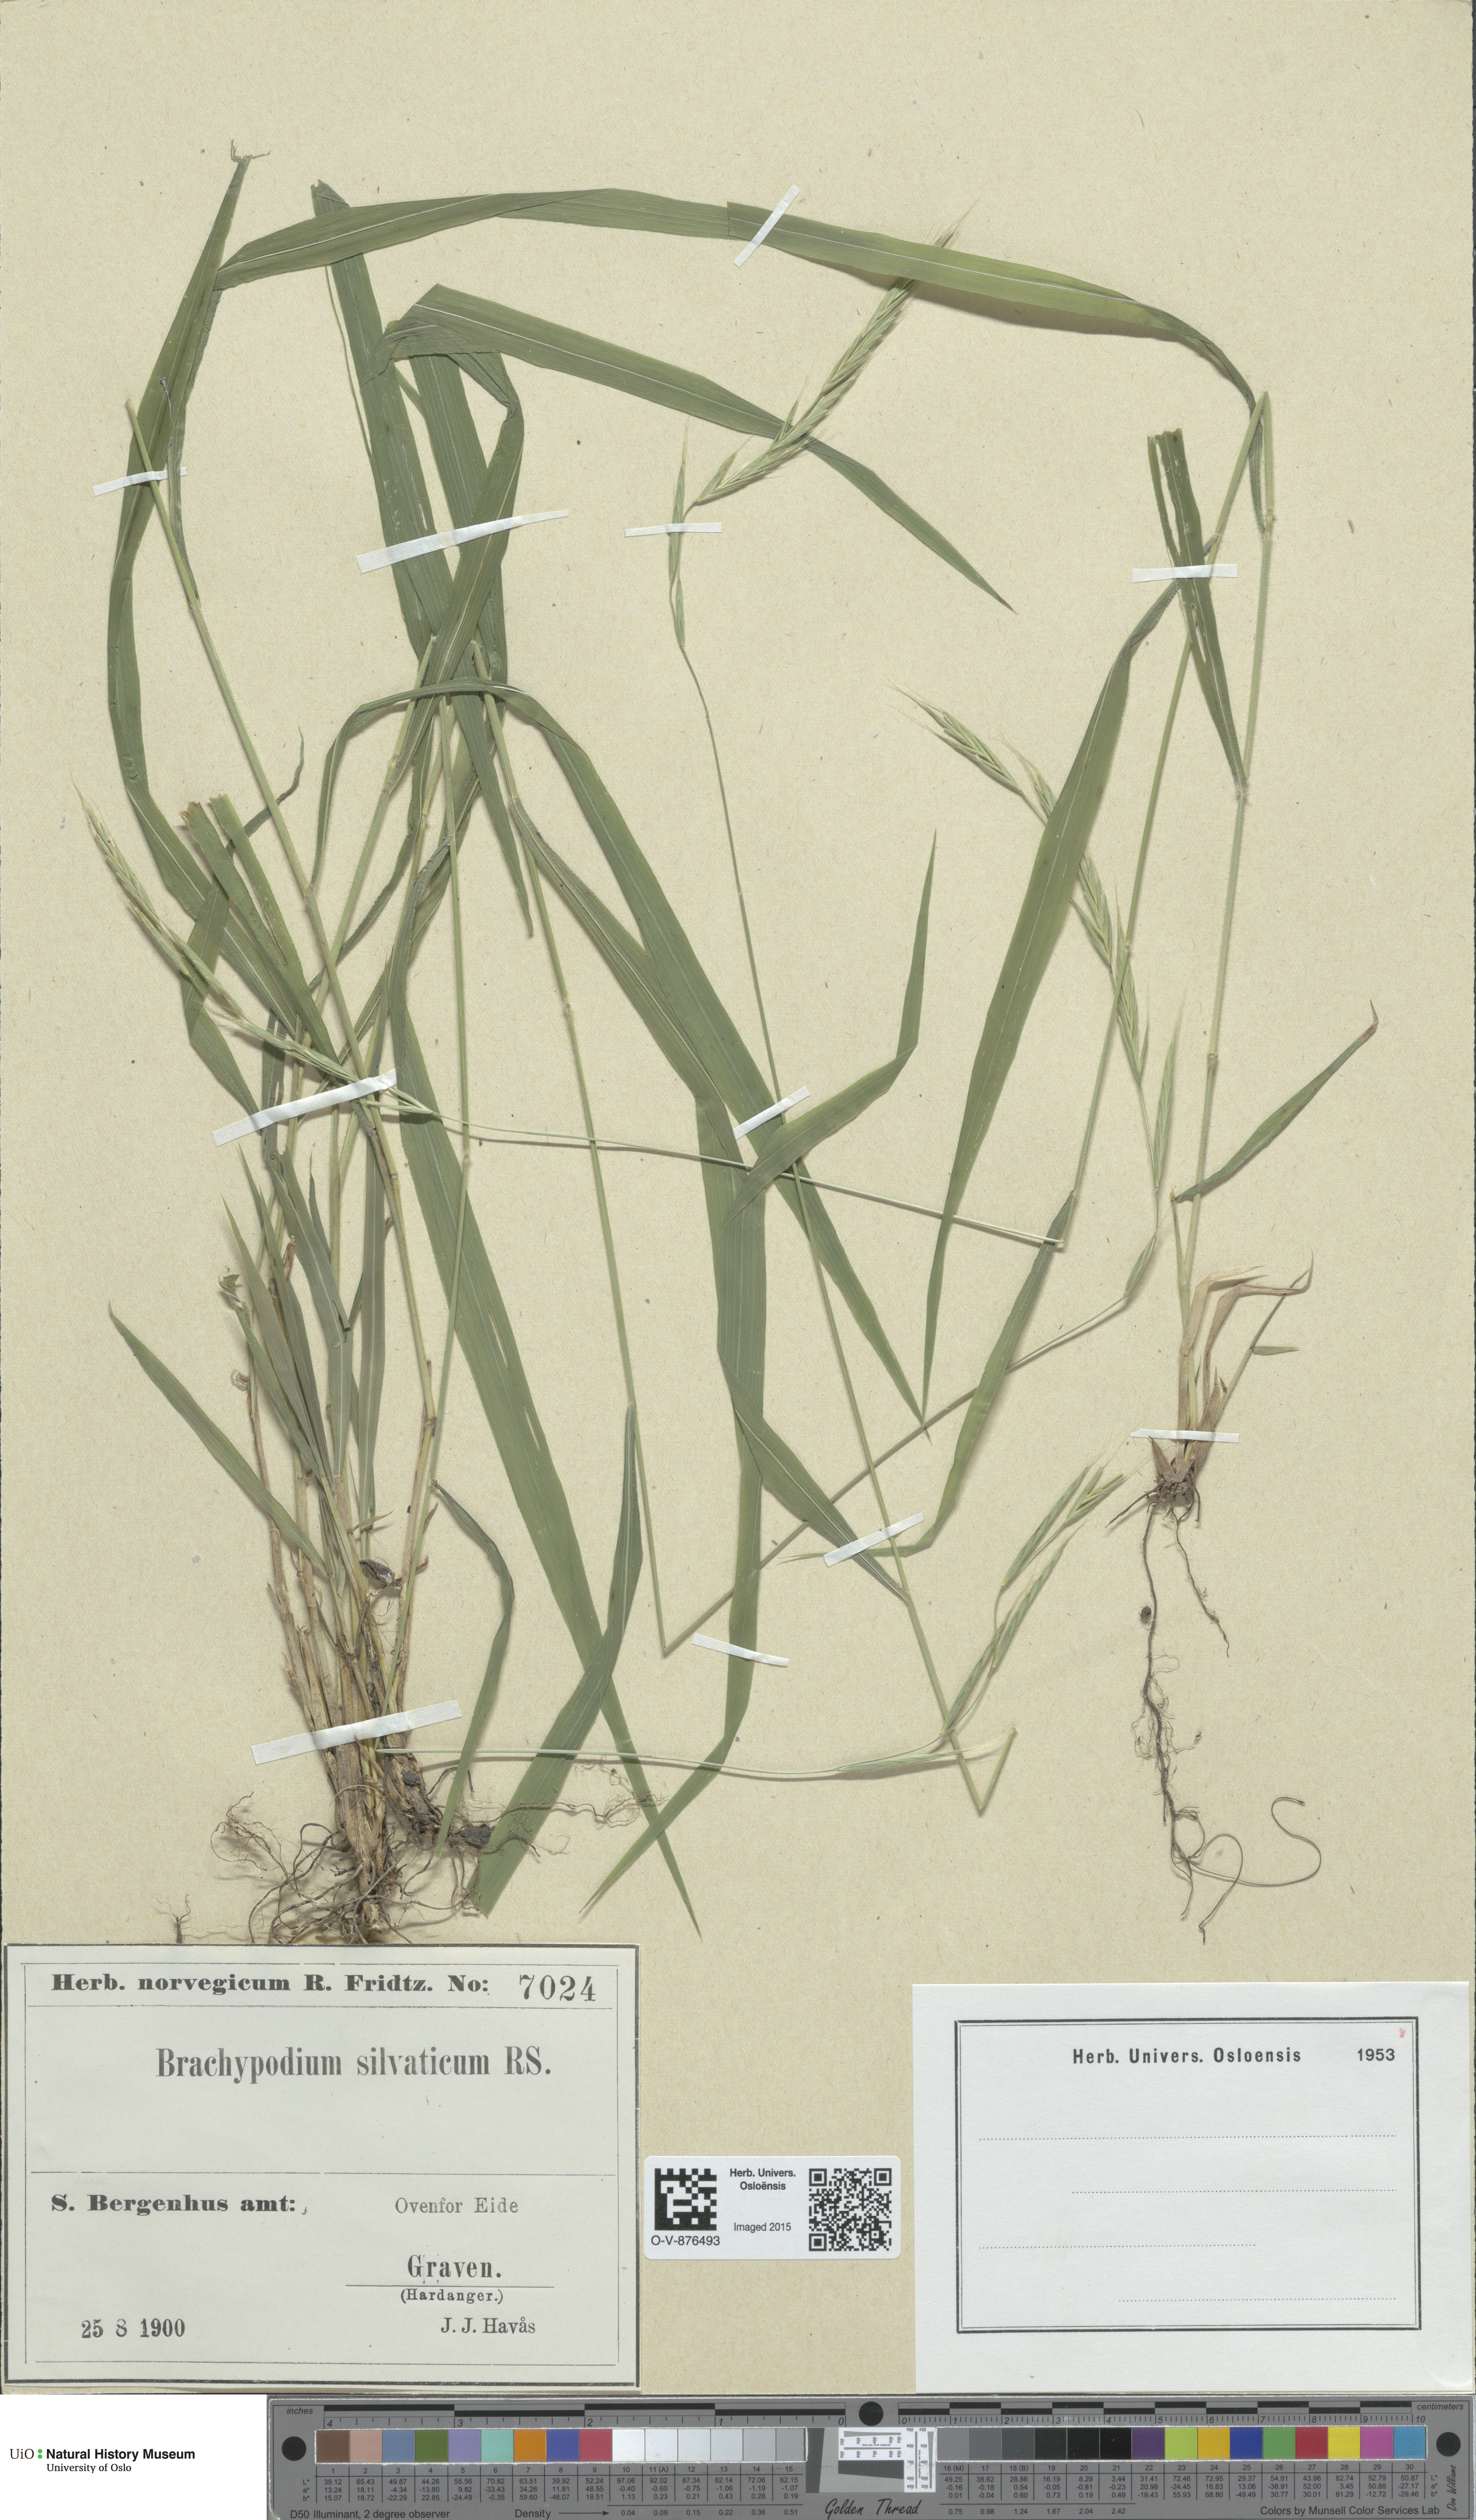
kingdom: Plantae
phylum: Tracheophyta
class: Liliopsida
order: Poales
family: Poaceae
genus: Brachypodium
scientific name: Brachypodium sylvaticum
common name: False-brome
